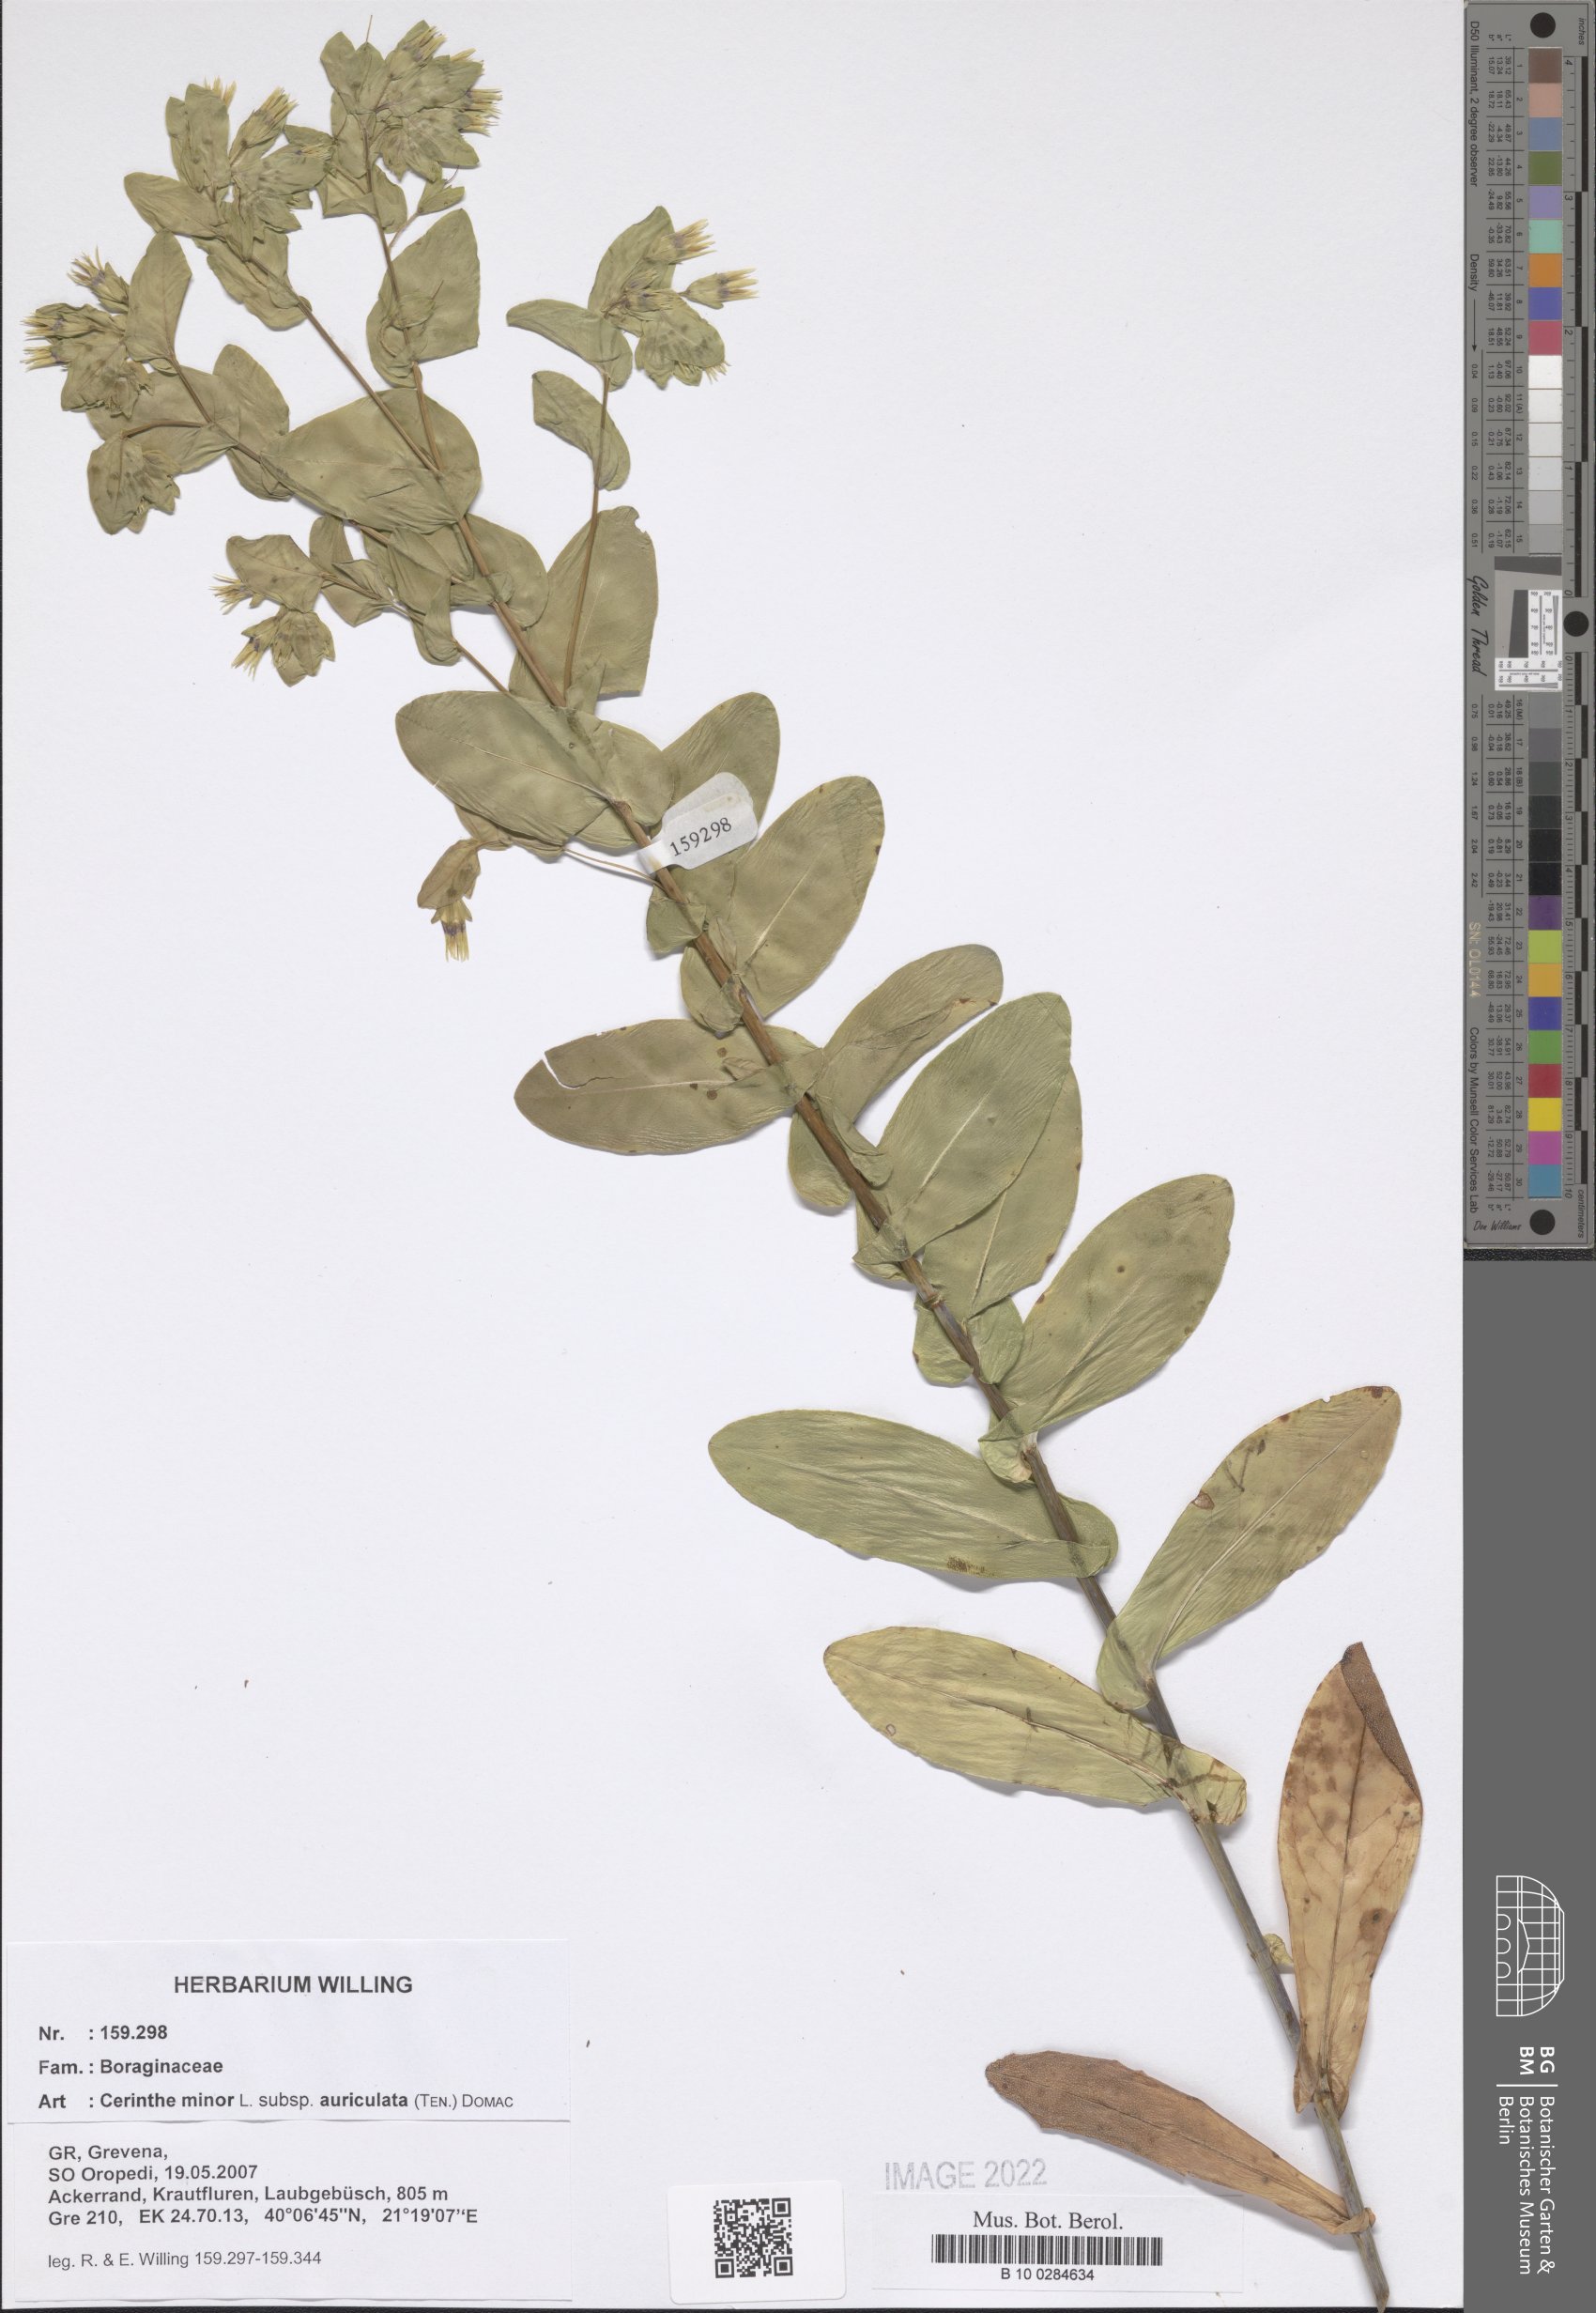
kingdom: Plantae
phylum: Tracheophyta
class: Magnoliopsida
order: Boraginales
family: Boraginaceae
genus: Cerinthe
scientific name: Cerinthe minor
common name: Lesser honeywort
